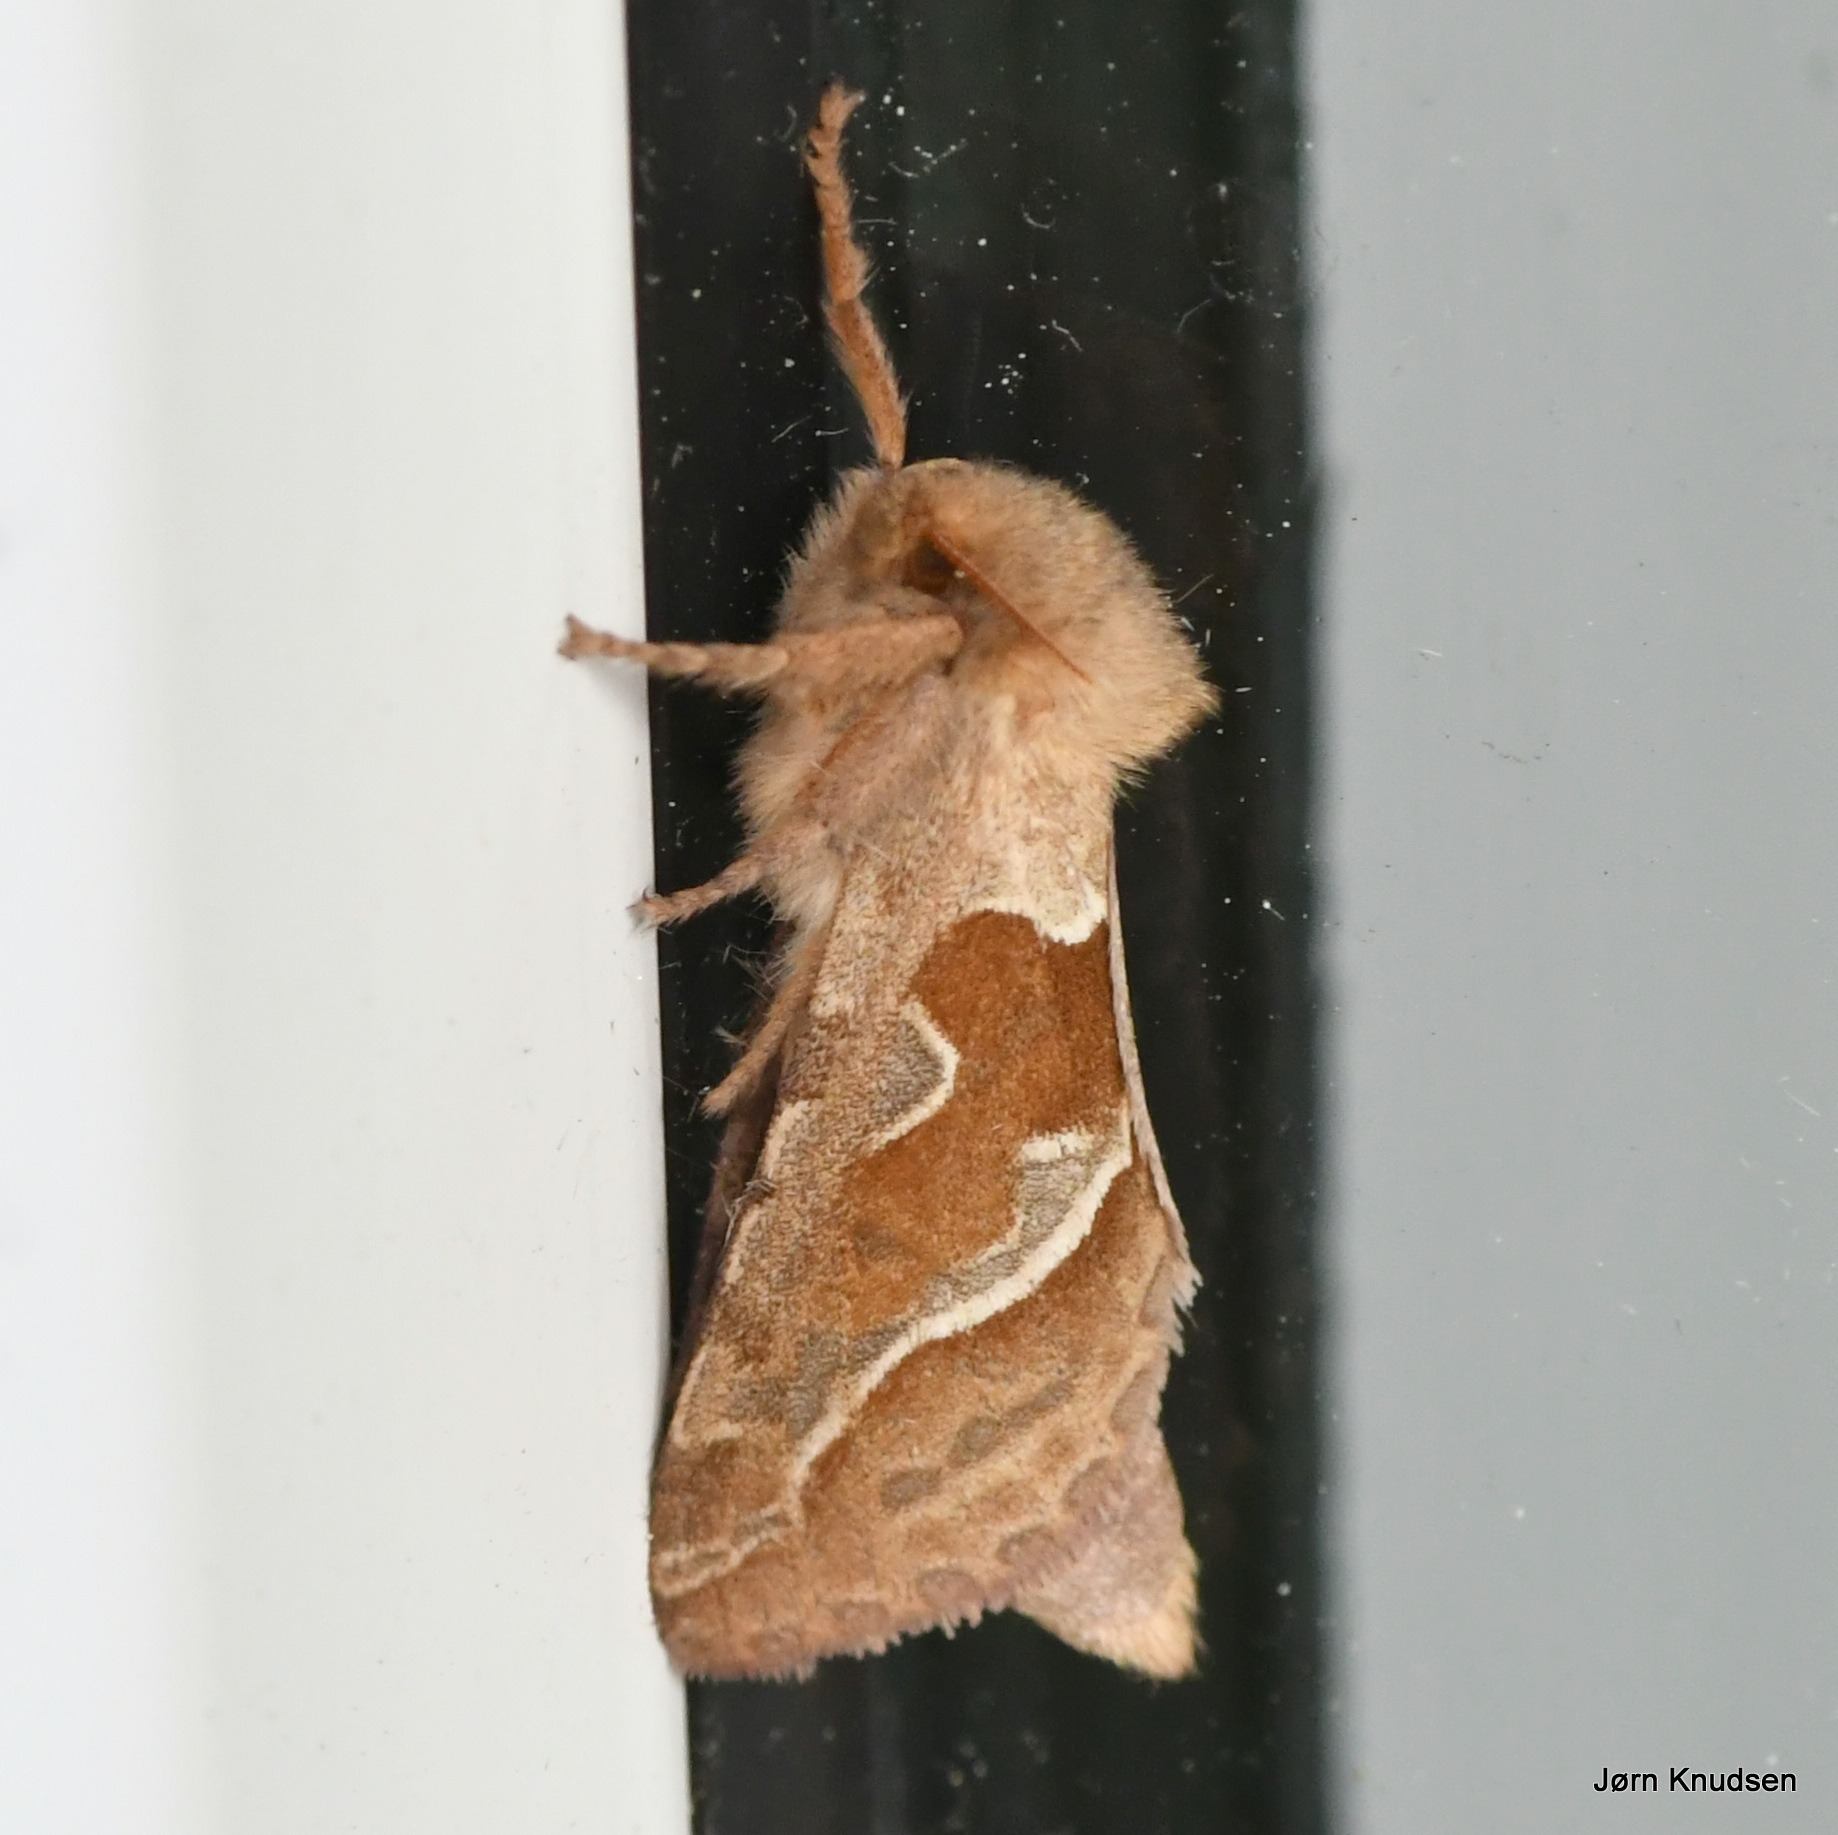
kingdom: Animalia
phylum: Arthropoda
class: Insecta
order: Lepidoptera
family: Hepialidae
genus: Triodia
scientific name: Triodia sylvina
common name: Skræpperodæder
